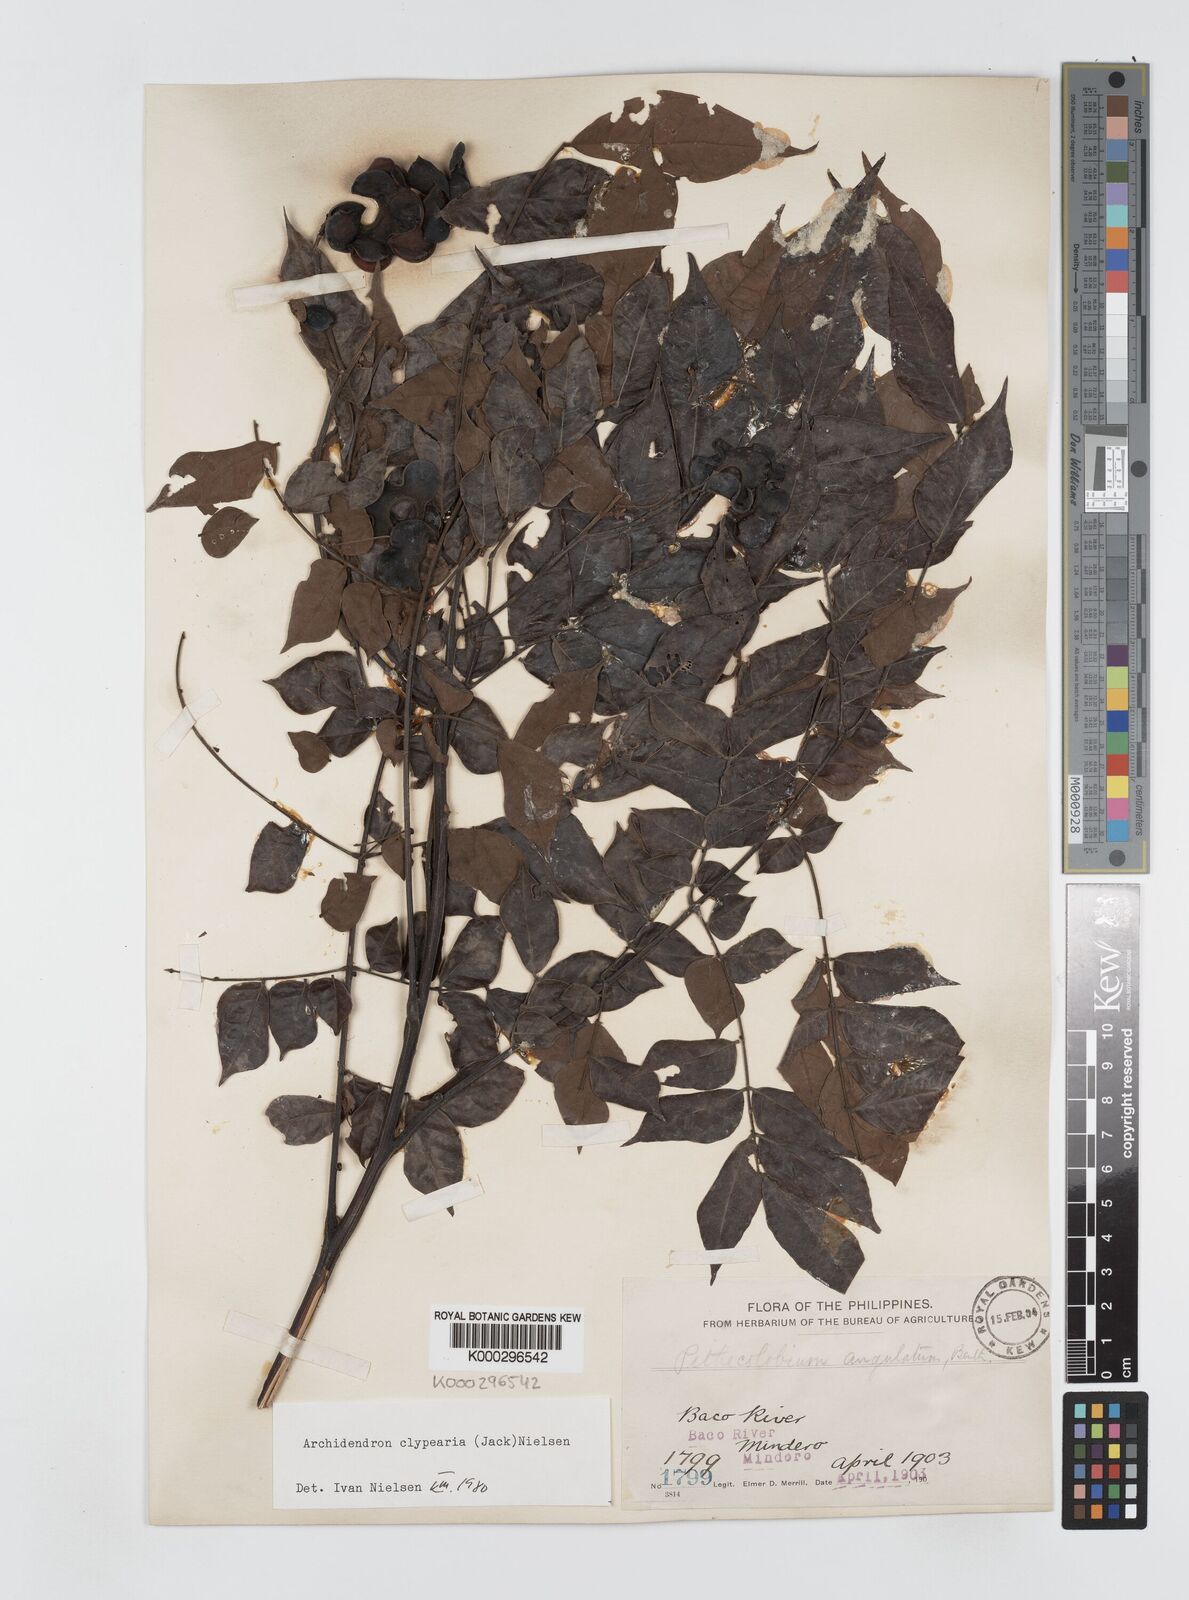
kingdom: Plantae
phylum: Tracheophyta
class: Magnoliopsida
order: Fabales
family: Fabaceae
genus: Archidendron
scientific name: Archidendron clypearia
